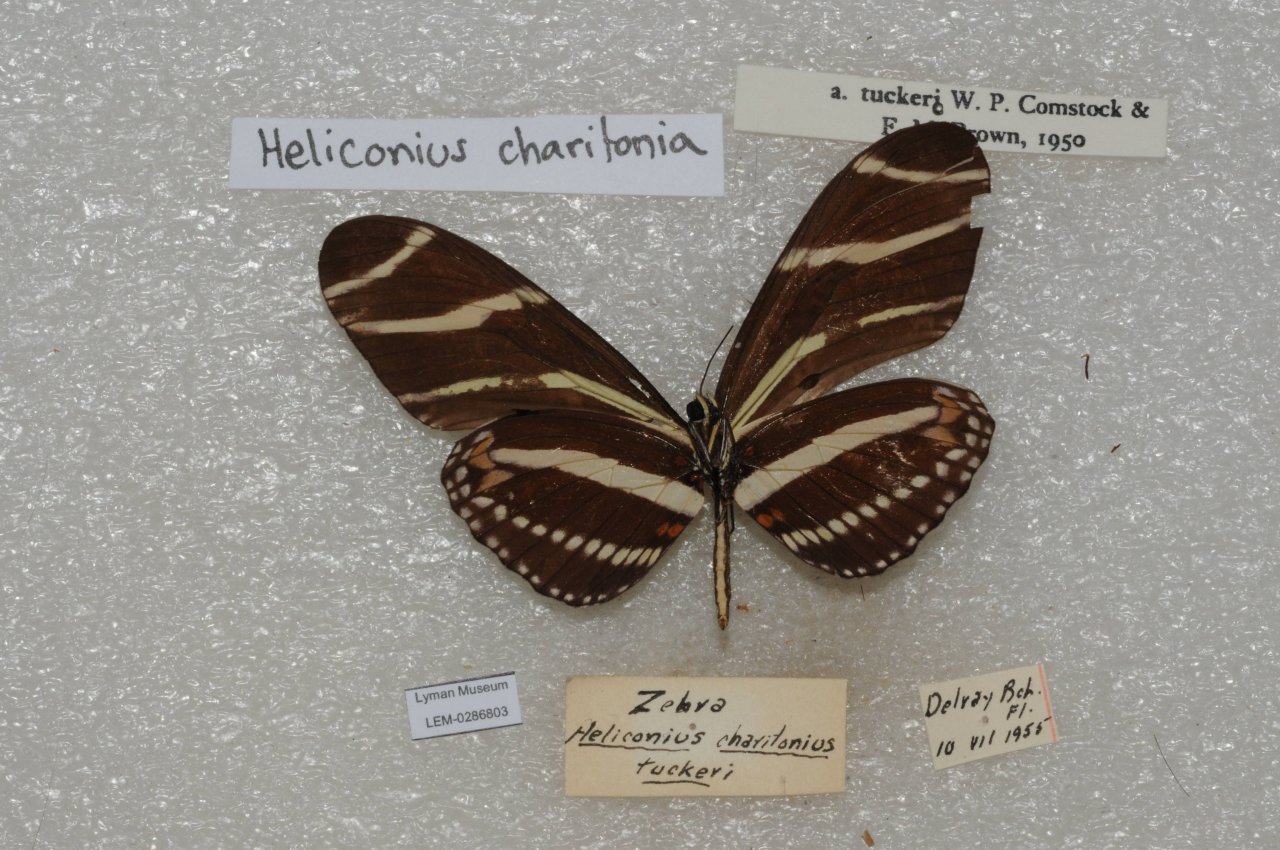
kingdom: Animalia
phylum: Arthropoda
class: Insecta
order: Lepidoptera
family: Nymphalidae
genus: Heliconius
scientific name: Heliconius charithonia
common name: Zebra Longwing
